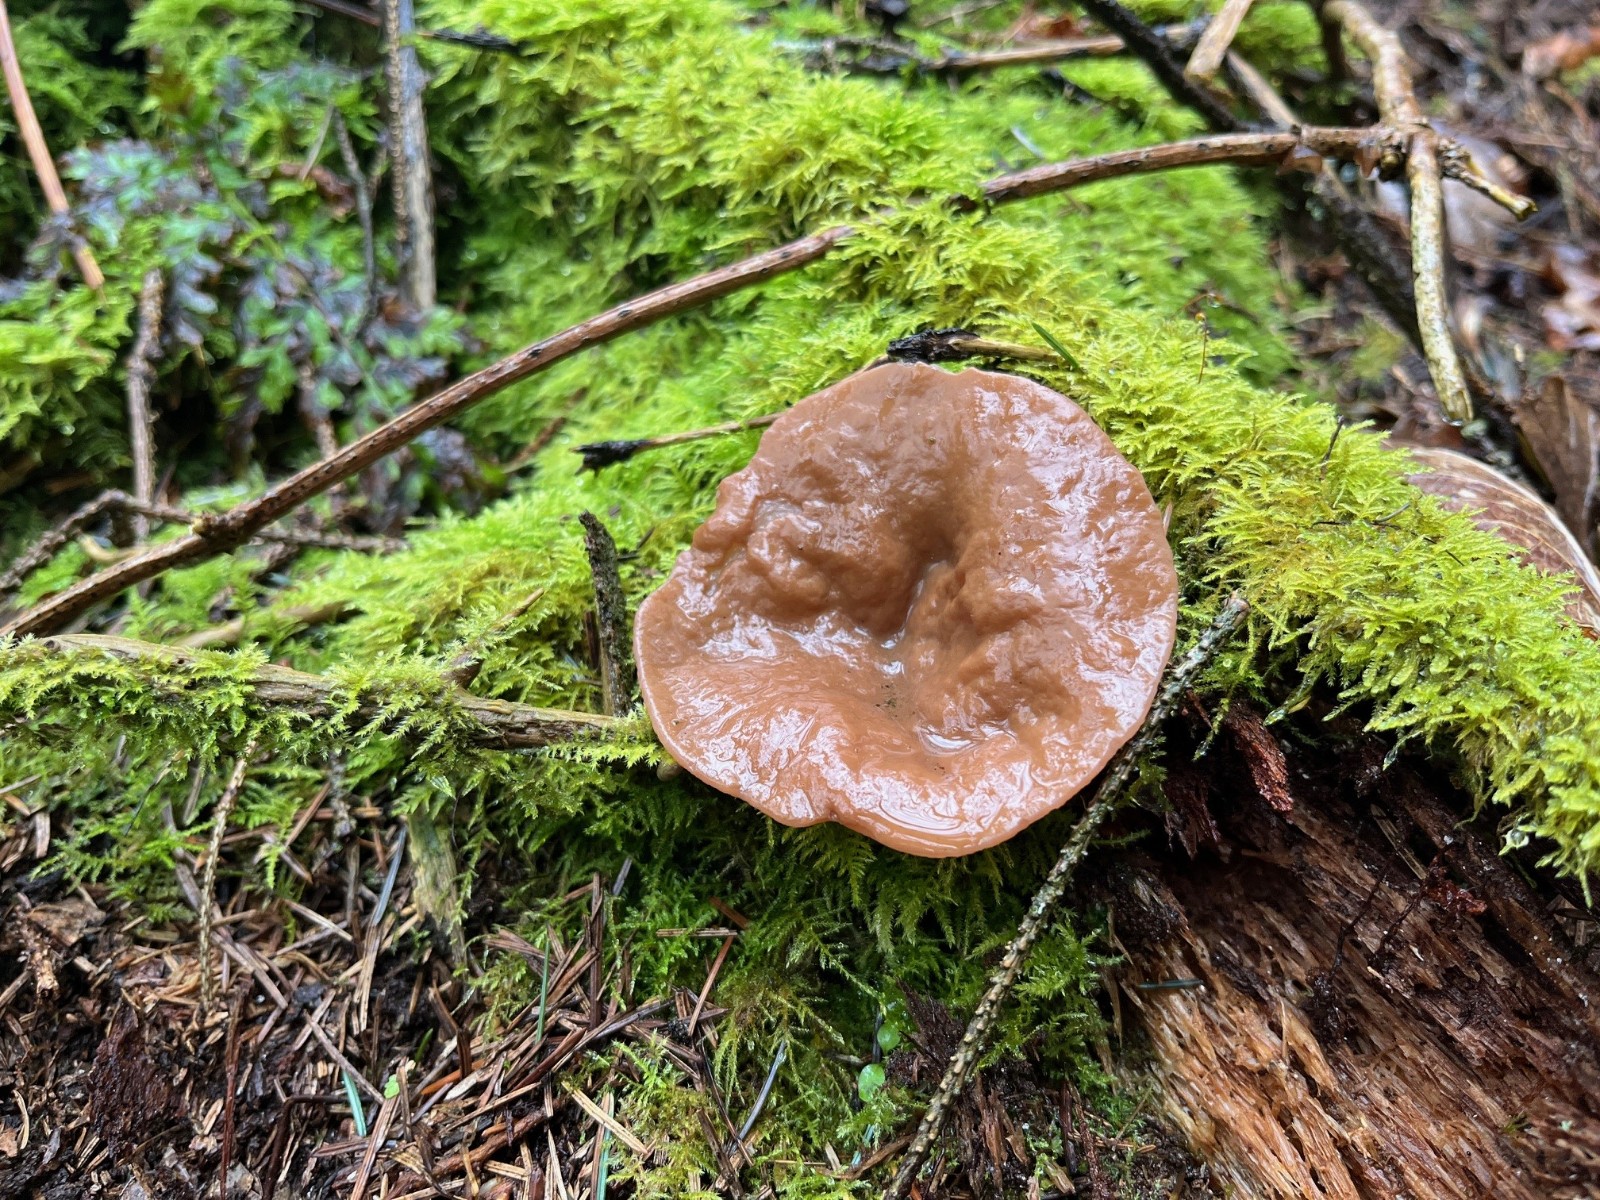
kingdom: Fungi
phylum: Ascomycota
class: Pezizomycetes
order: Pezizales
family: Discinaceae
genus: Discina
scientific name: Discina ancilis
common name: udbredt stenmorkel
